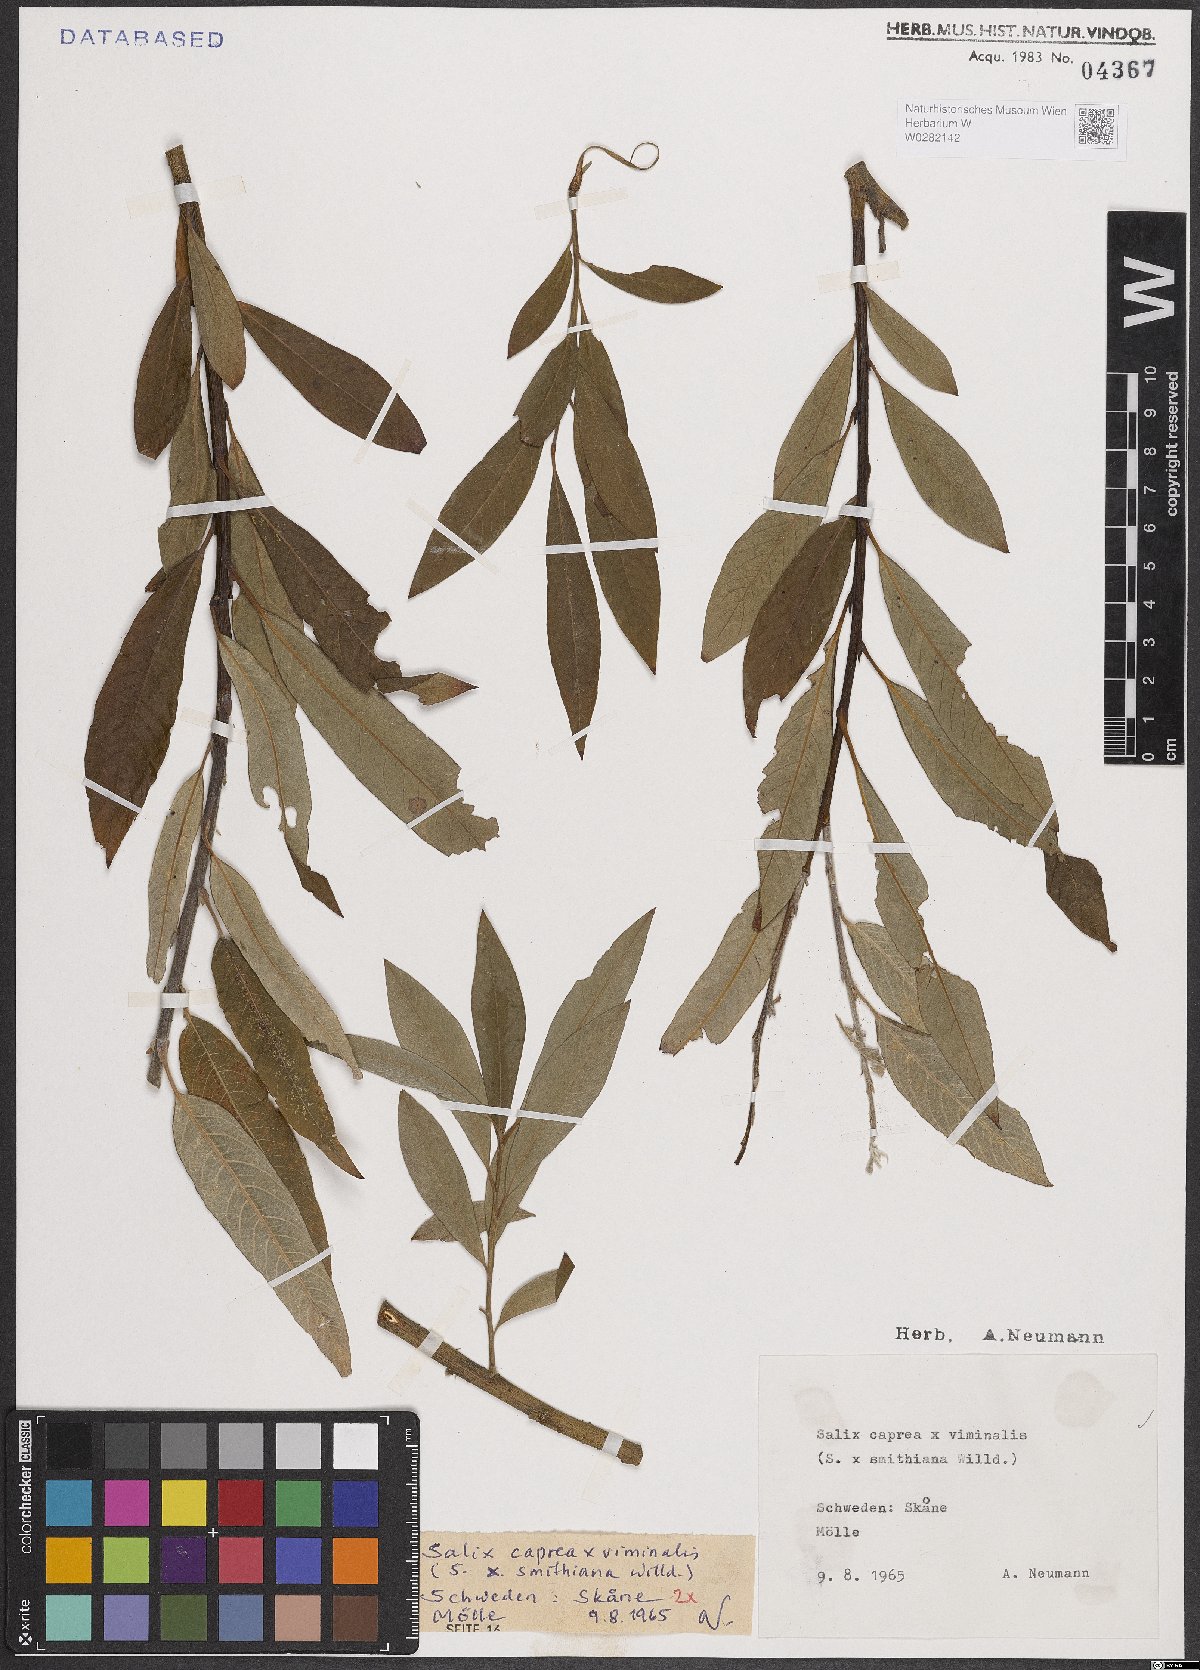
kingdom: Plantae
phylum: Tracheophyta
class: Magnoliopsida
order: Malpighiales
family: Salicaceae
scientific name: Salicaceae
